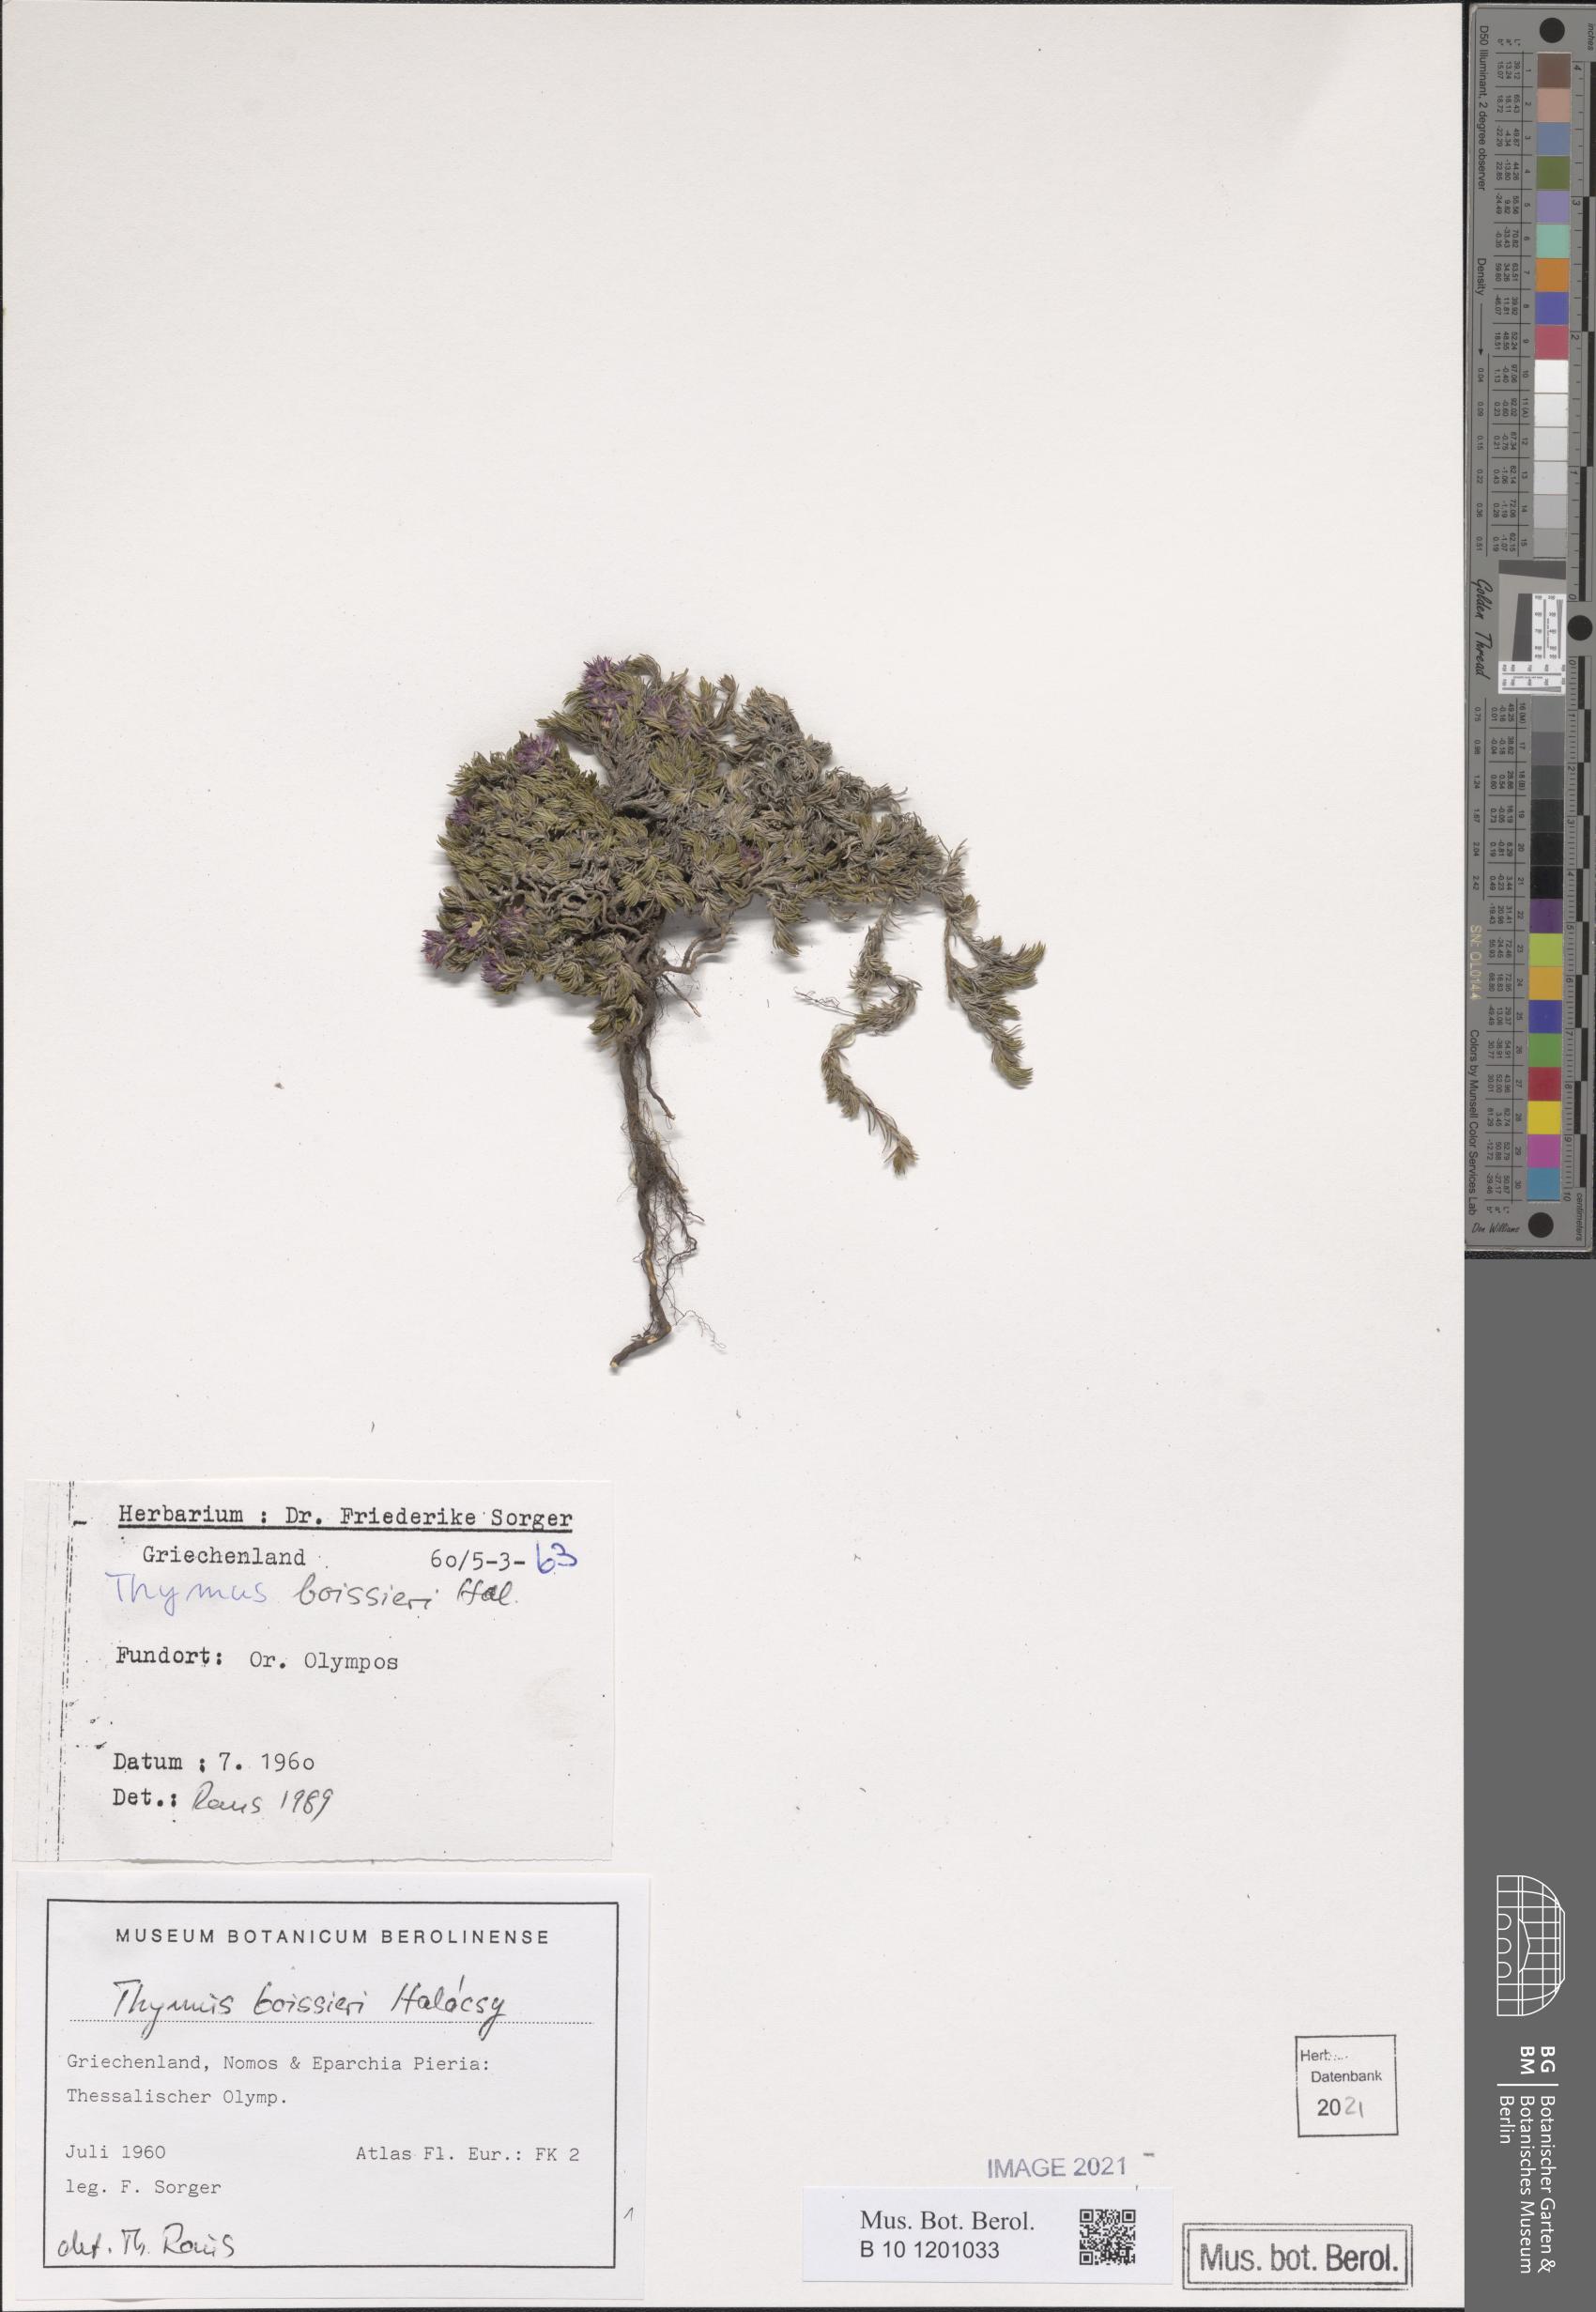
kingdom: Plantae
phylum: Tracheophyta
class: Magnoliopsida
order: Lamiales
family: Lamiaceae
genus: Thymus
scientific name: Thymus boissieri
